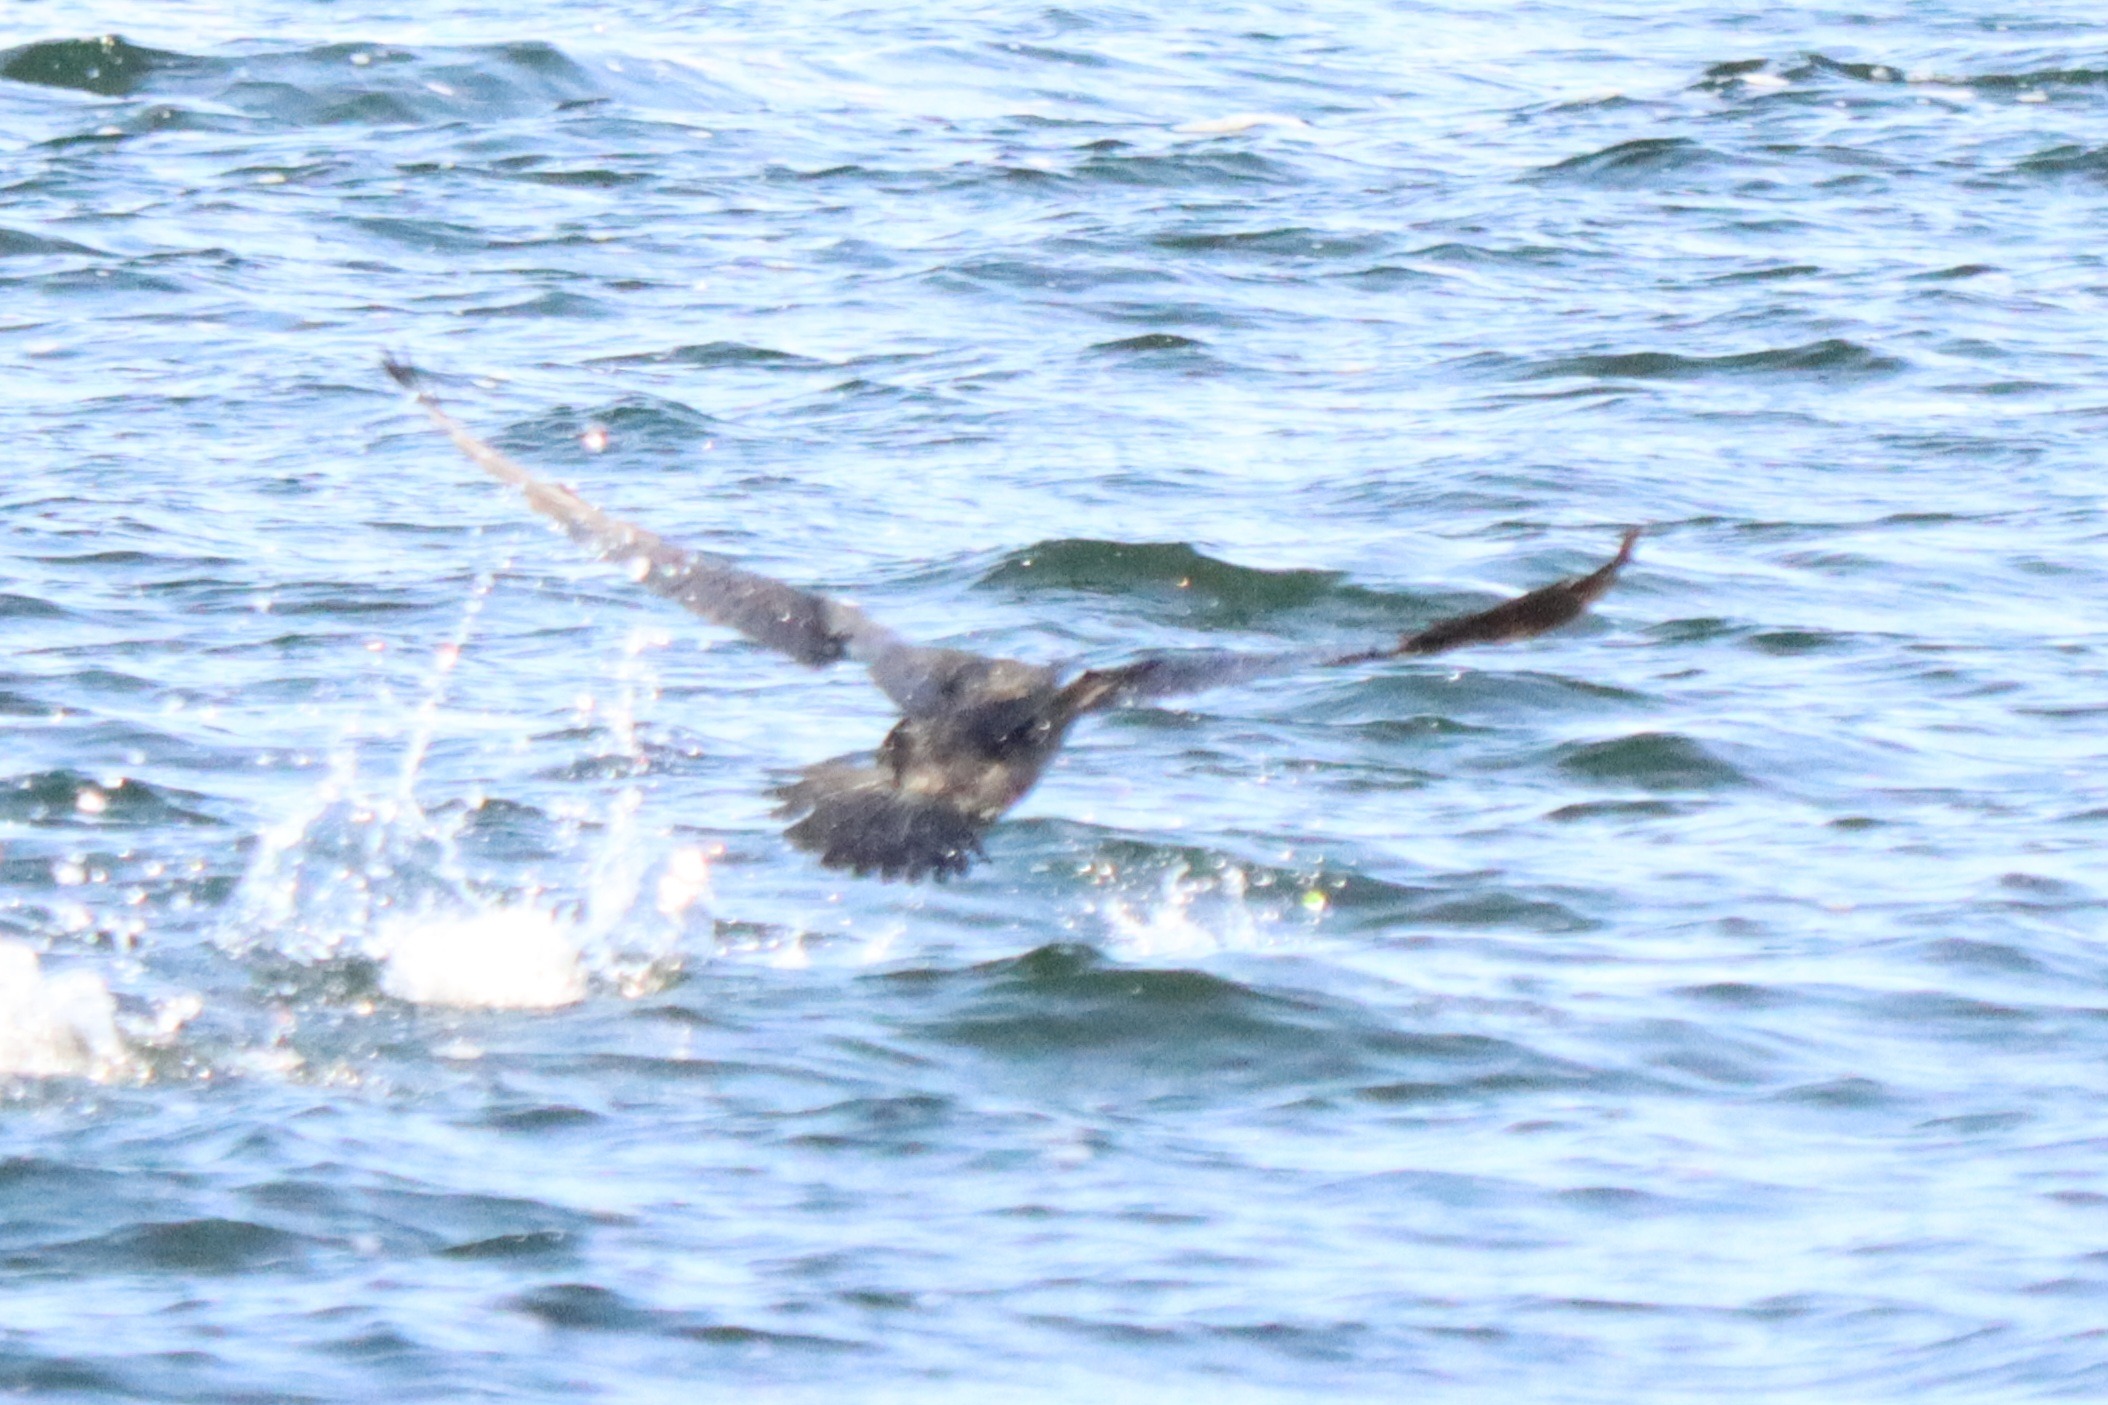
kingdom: Animalia
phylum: Chordata
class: Aves
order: Suliformes
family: Phalacrocoracidae
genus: Phalacrocorax
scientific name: Phalacrocorax carbo
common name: Skarv
